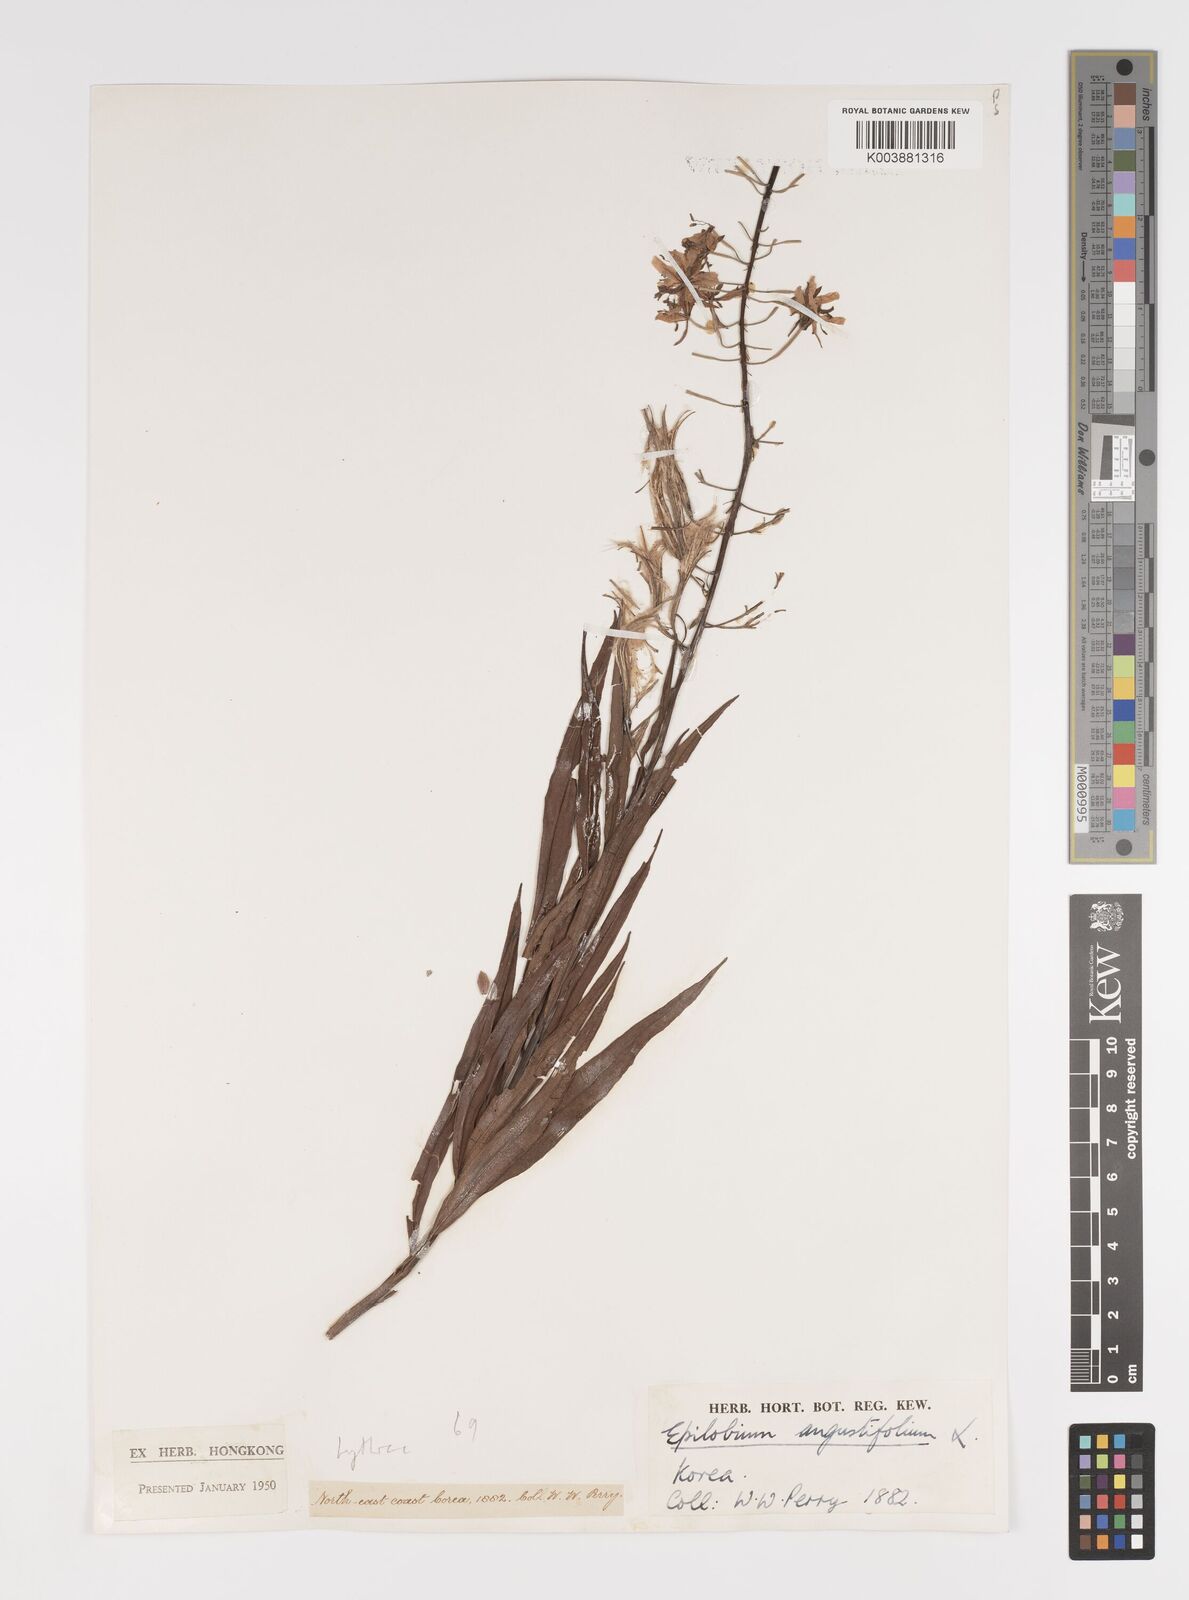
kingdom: Plantae
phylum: Tracheophyta
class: Magnoliopsida
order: Myrtales
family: Onagraceae
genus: Chamaenerion
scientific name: Chamaenerion angustifolium
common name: Fireweed
